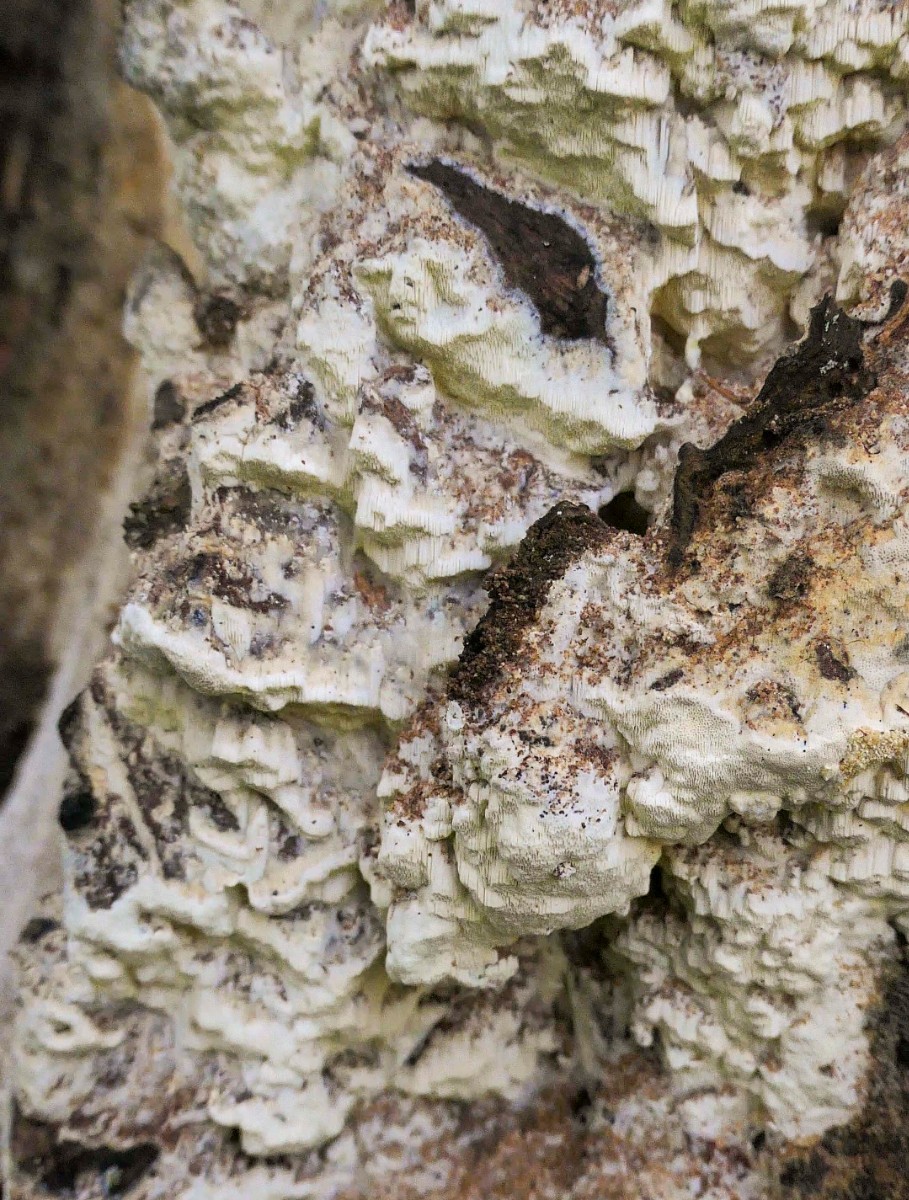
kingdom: Fungi
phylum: Basidiomycota
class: Agaricomycetes
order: Polyporales
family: Fomitopsidaceae
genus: Daedalea
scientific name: Daedalea xantha
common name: gul sejporesvamp
